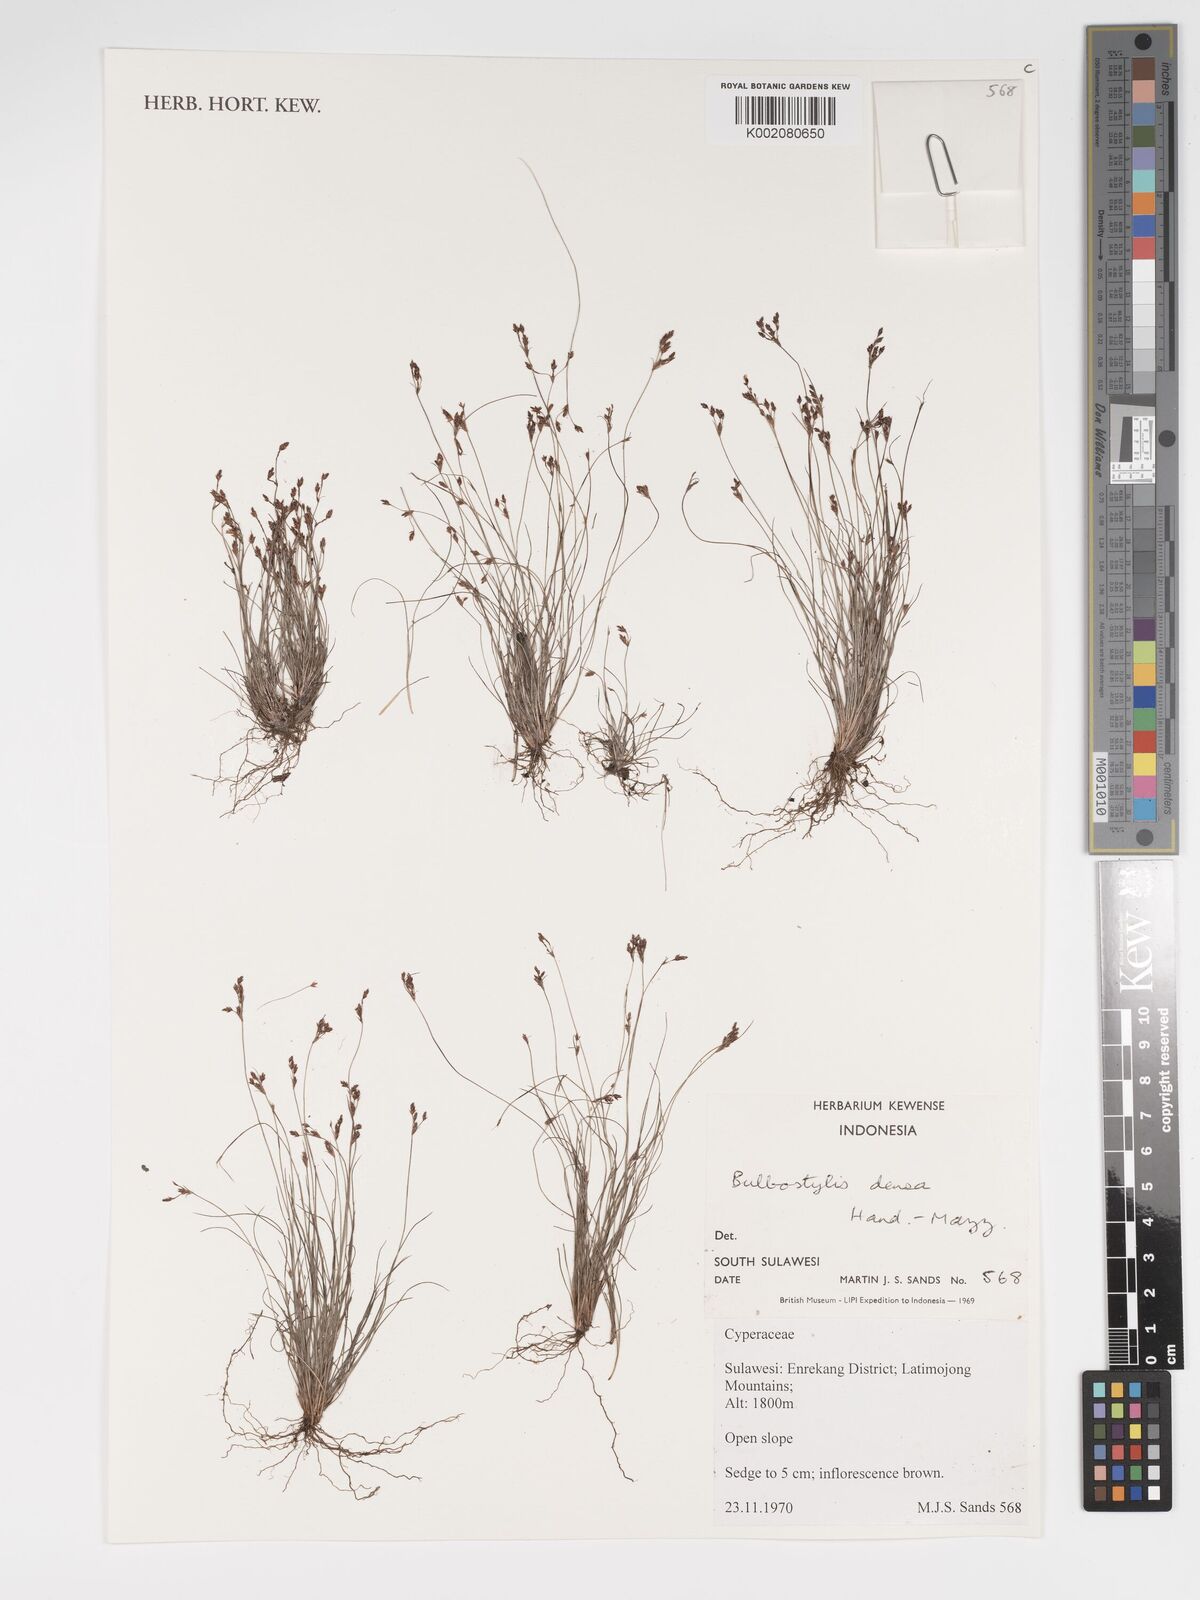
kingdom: Plantae
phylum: Tracheophyta
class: Liliopsida
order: Poales
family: Cyperaceae
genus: Bulbostylis
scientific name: Bulbostylis densa
